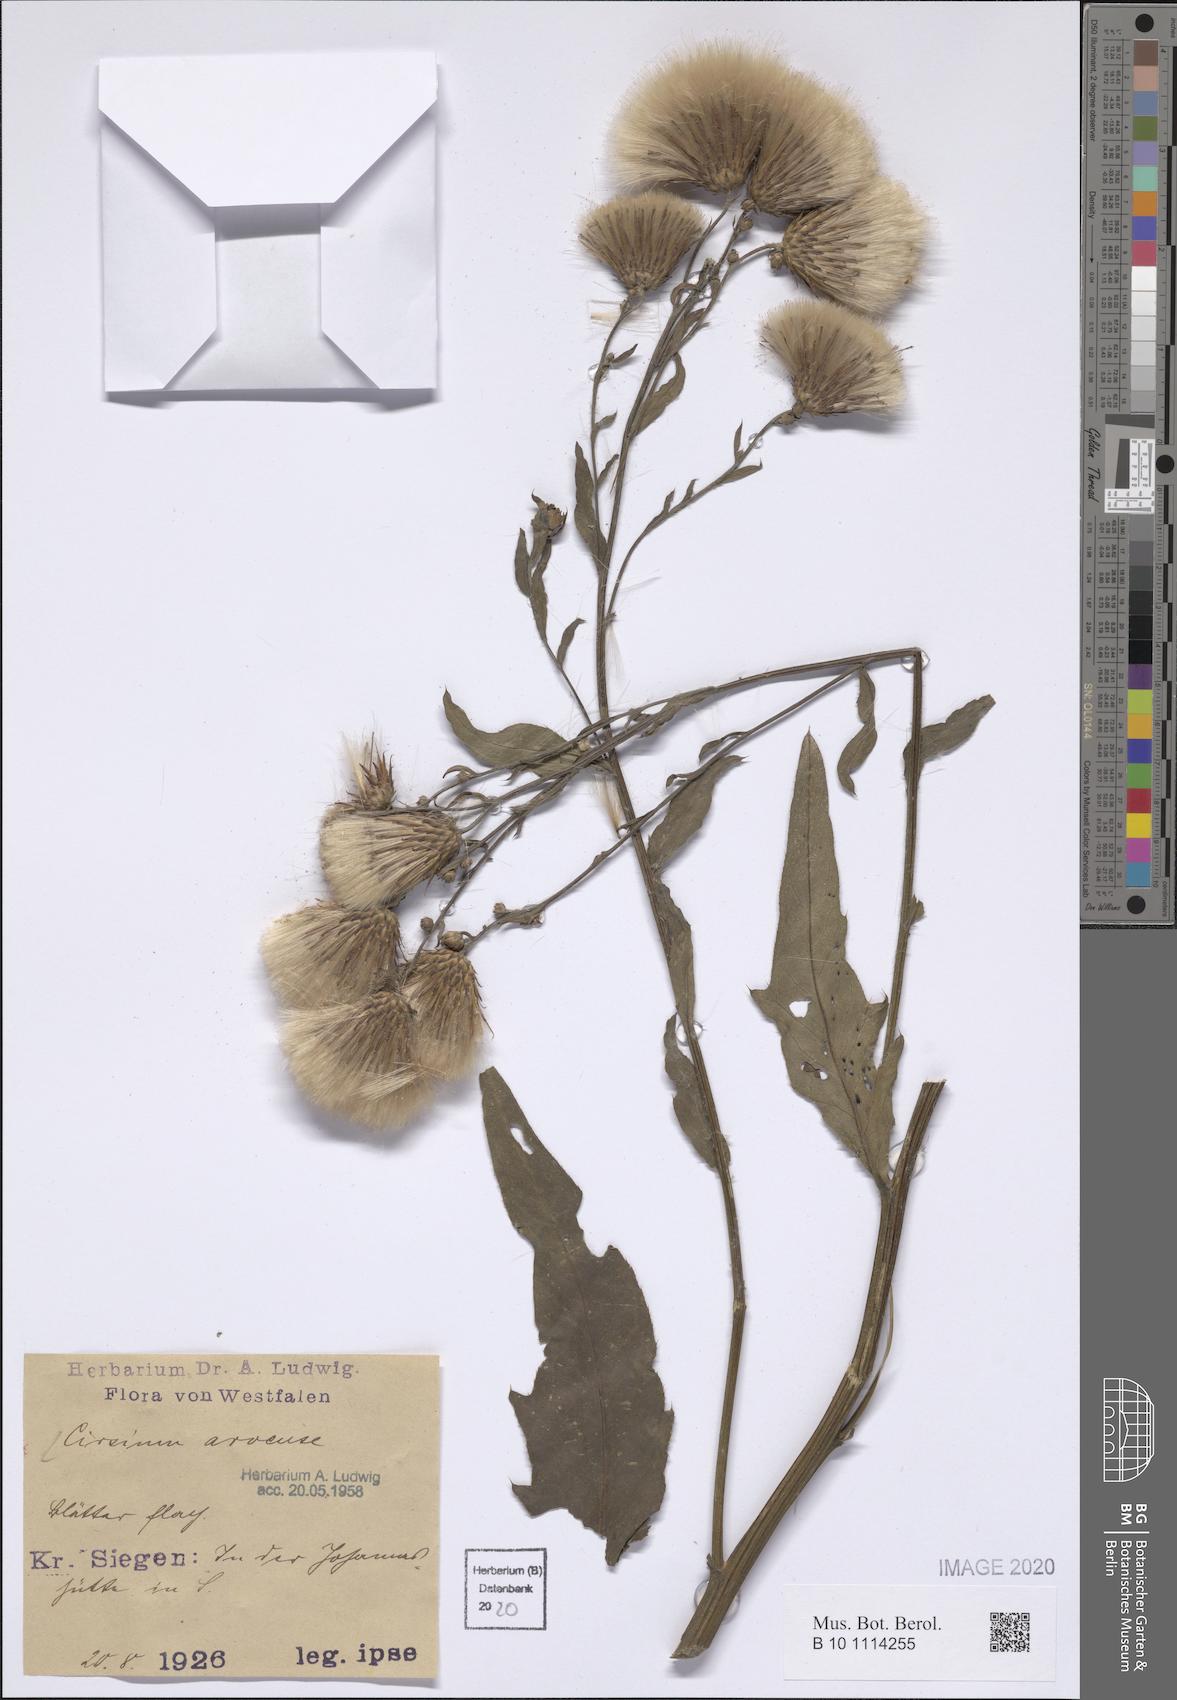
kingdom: Plantae
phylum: Tracheophyta
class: Magnoliopsida
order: Asterales
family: Asteraceae
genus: Cirsium
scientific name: Cirsium arvense
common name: Creeping thistle
